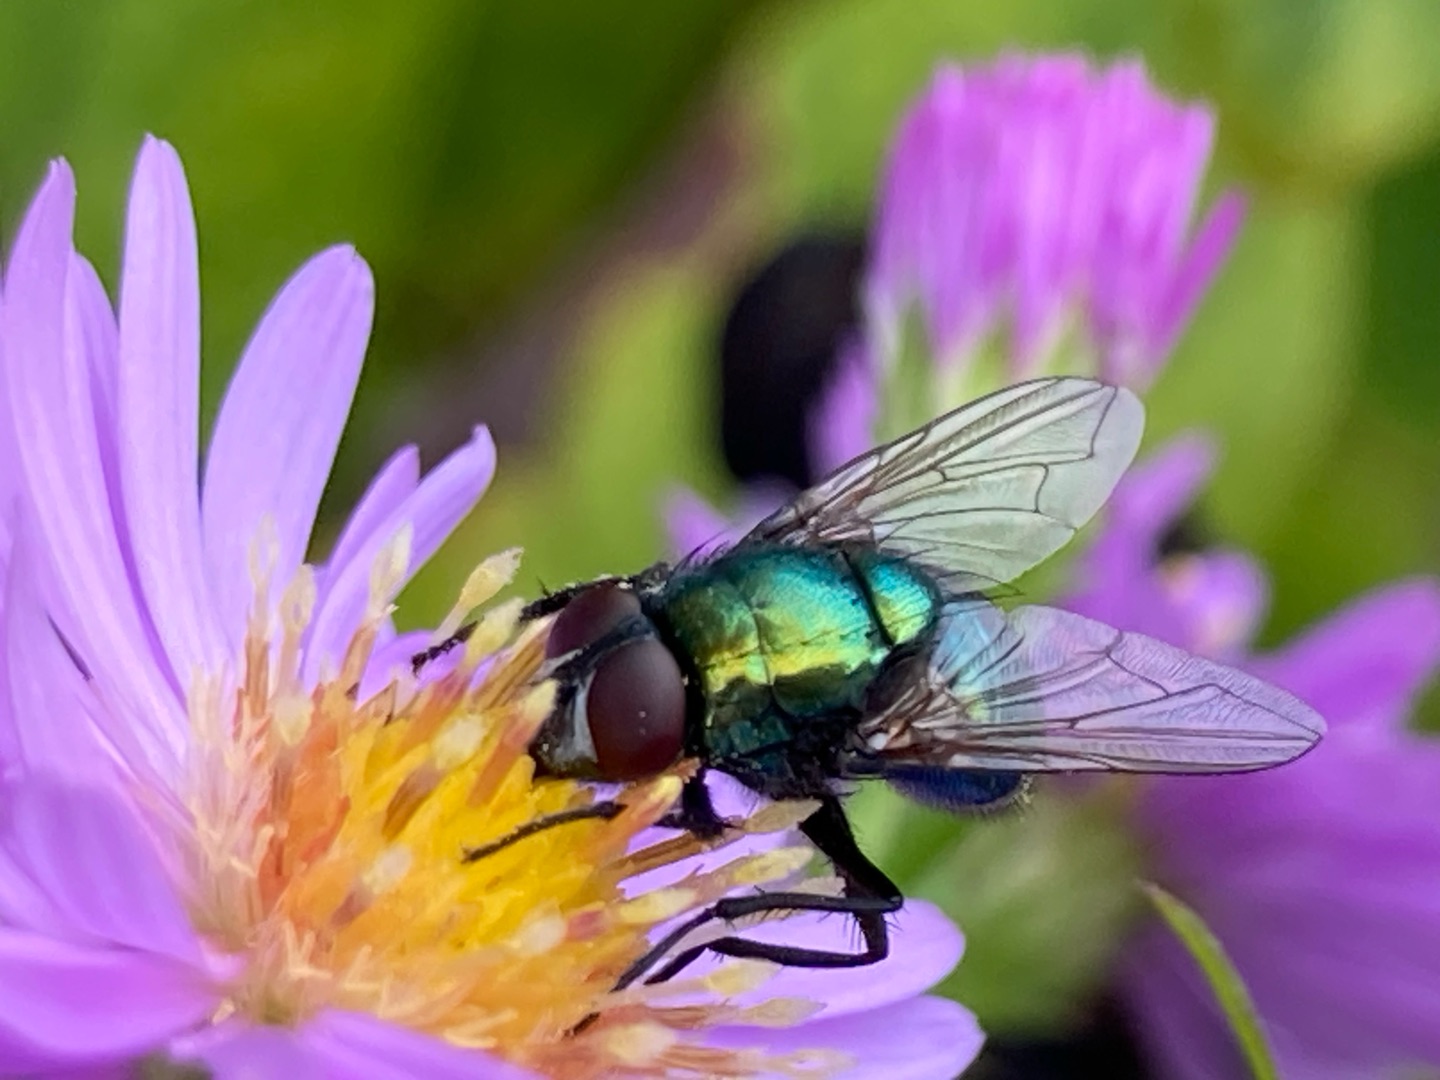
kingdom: Animalia
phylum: Arthropoda
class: Insecta
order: Diptera
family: Muscidae
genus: Neomyia
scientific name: Neomyia cornicina
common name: Grøn kokasseflue
